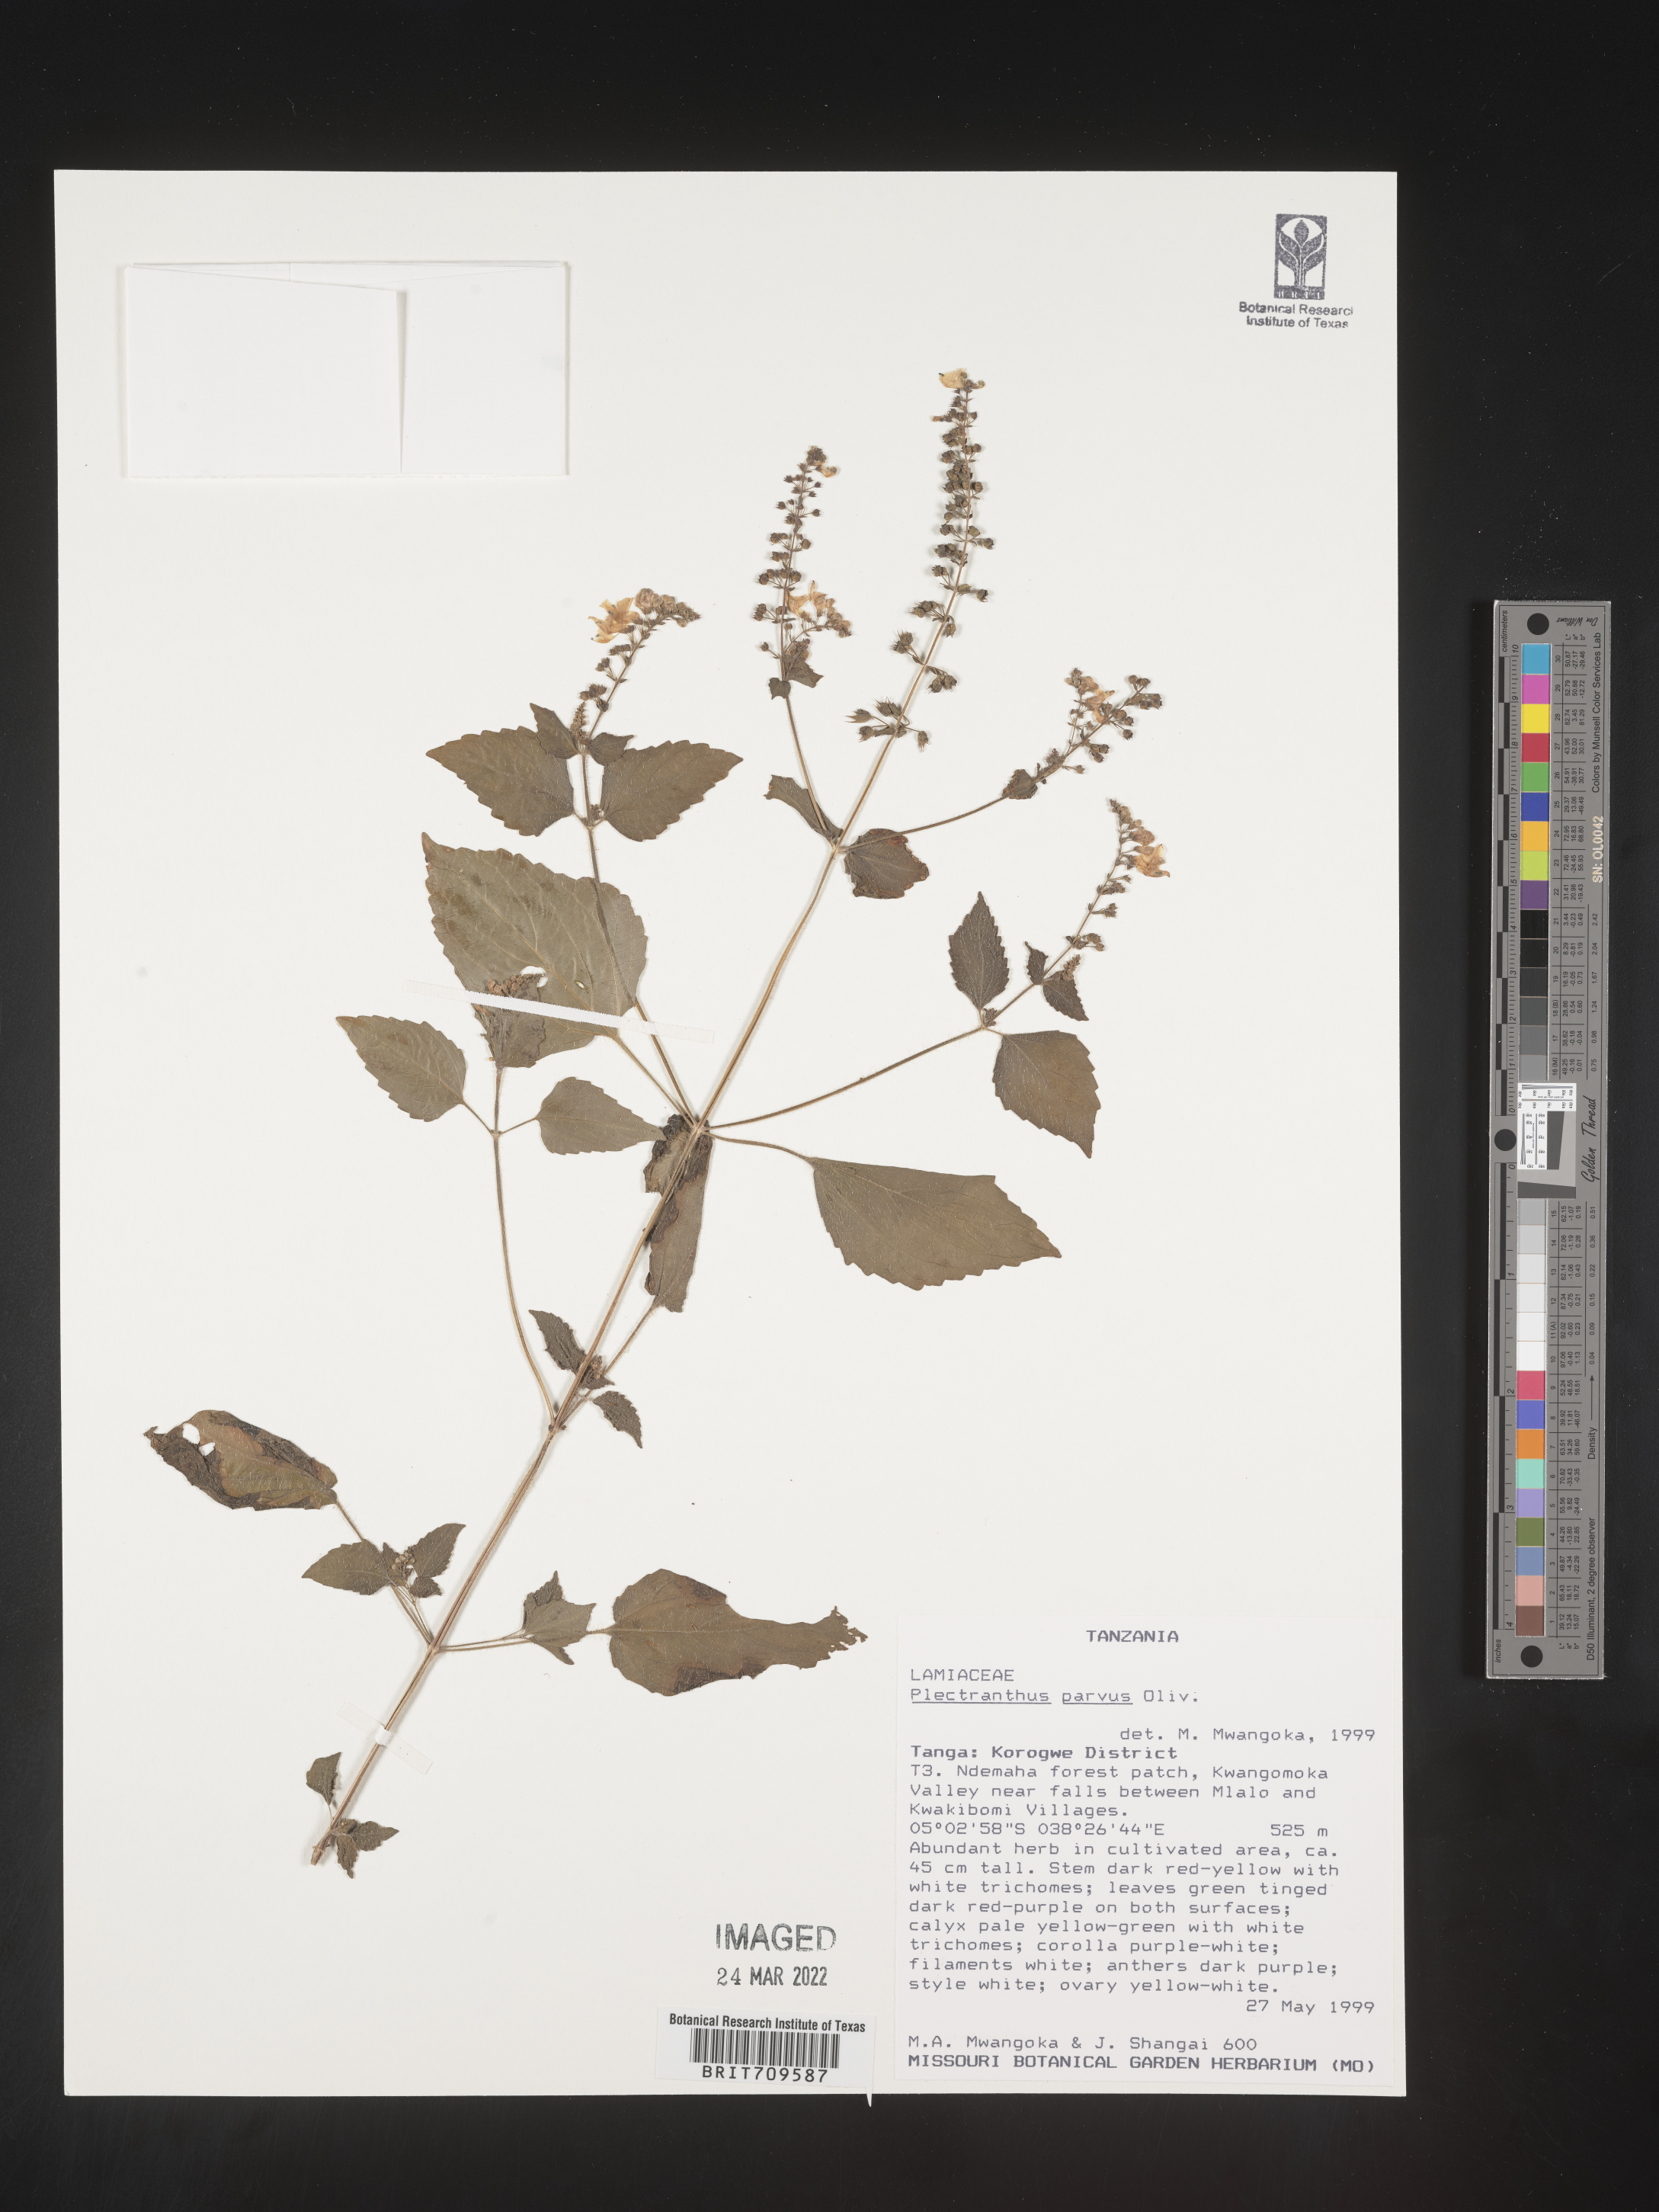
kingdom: Plantae
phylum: Tracheophyta
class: Magnoliopsida
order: Lamiales
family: Lamiaceae
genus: Plectranthus
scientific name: Plectranthus
